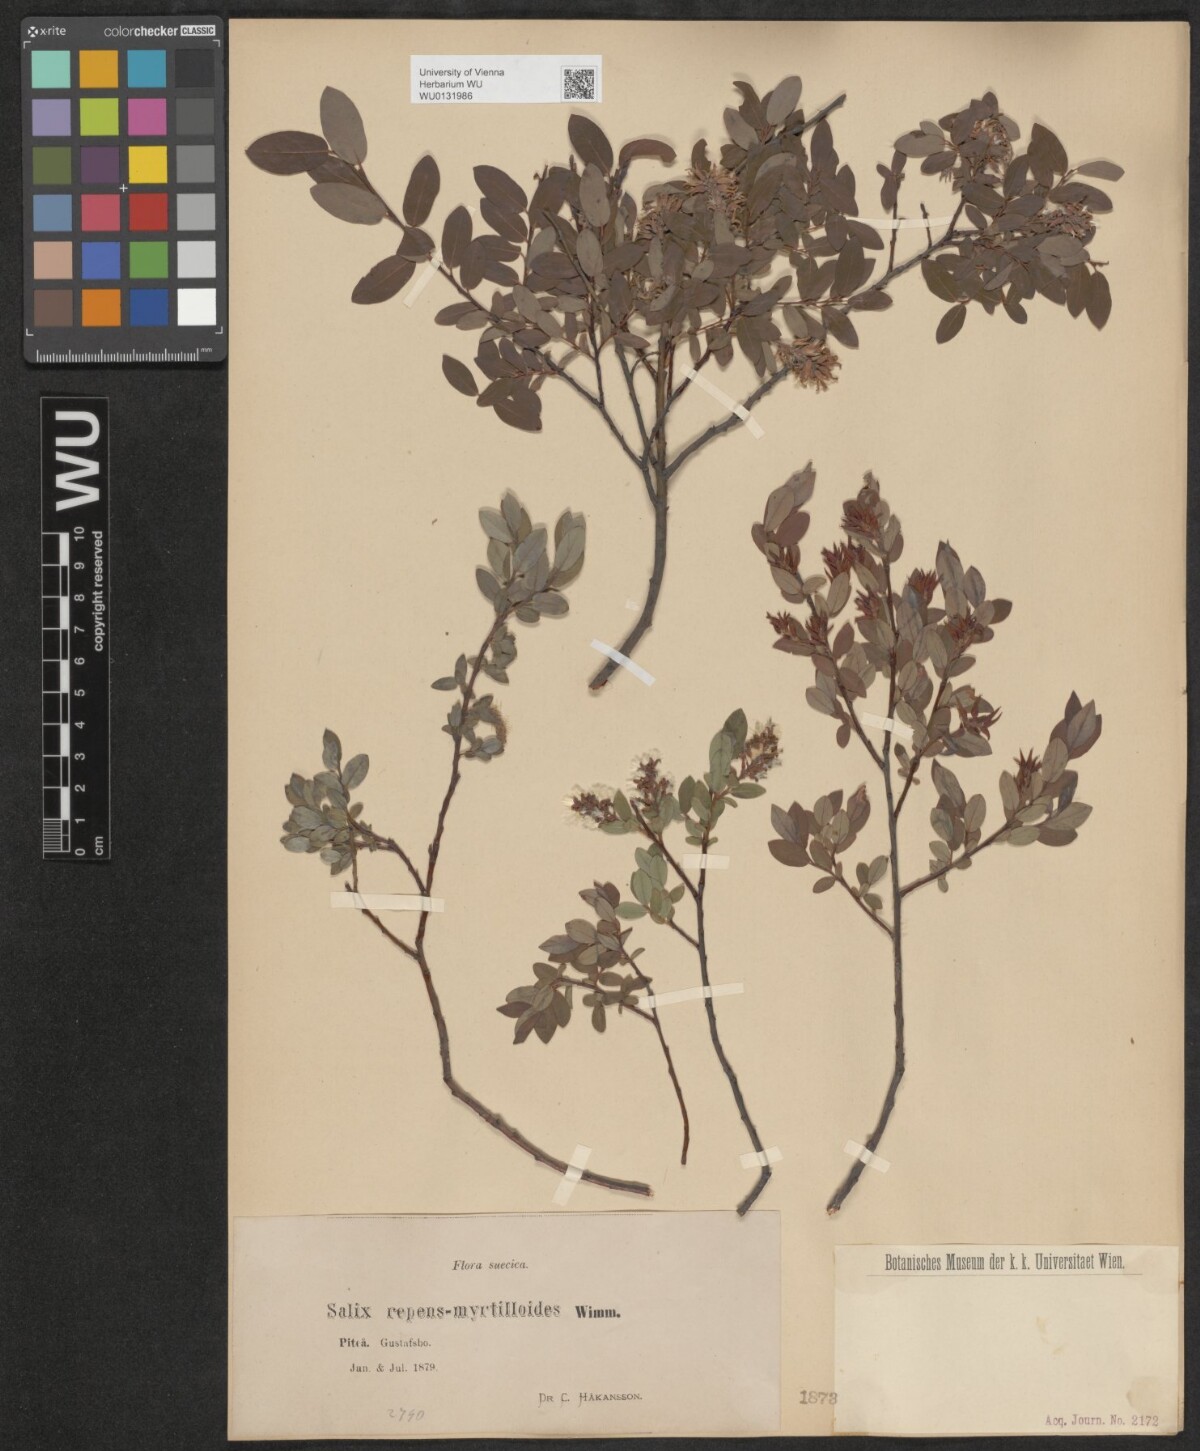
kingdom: Plantae
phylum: Tracheophyta
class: Magnoliopsida
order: Malpighiales
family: Salicaceae
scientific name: Salicaceae
